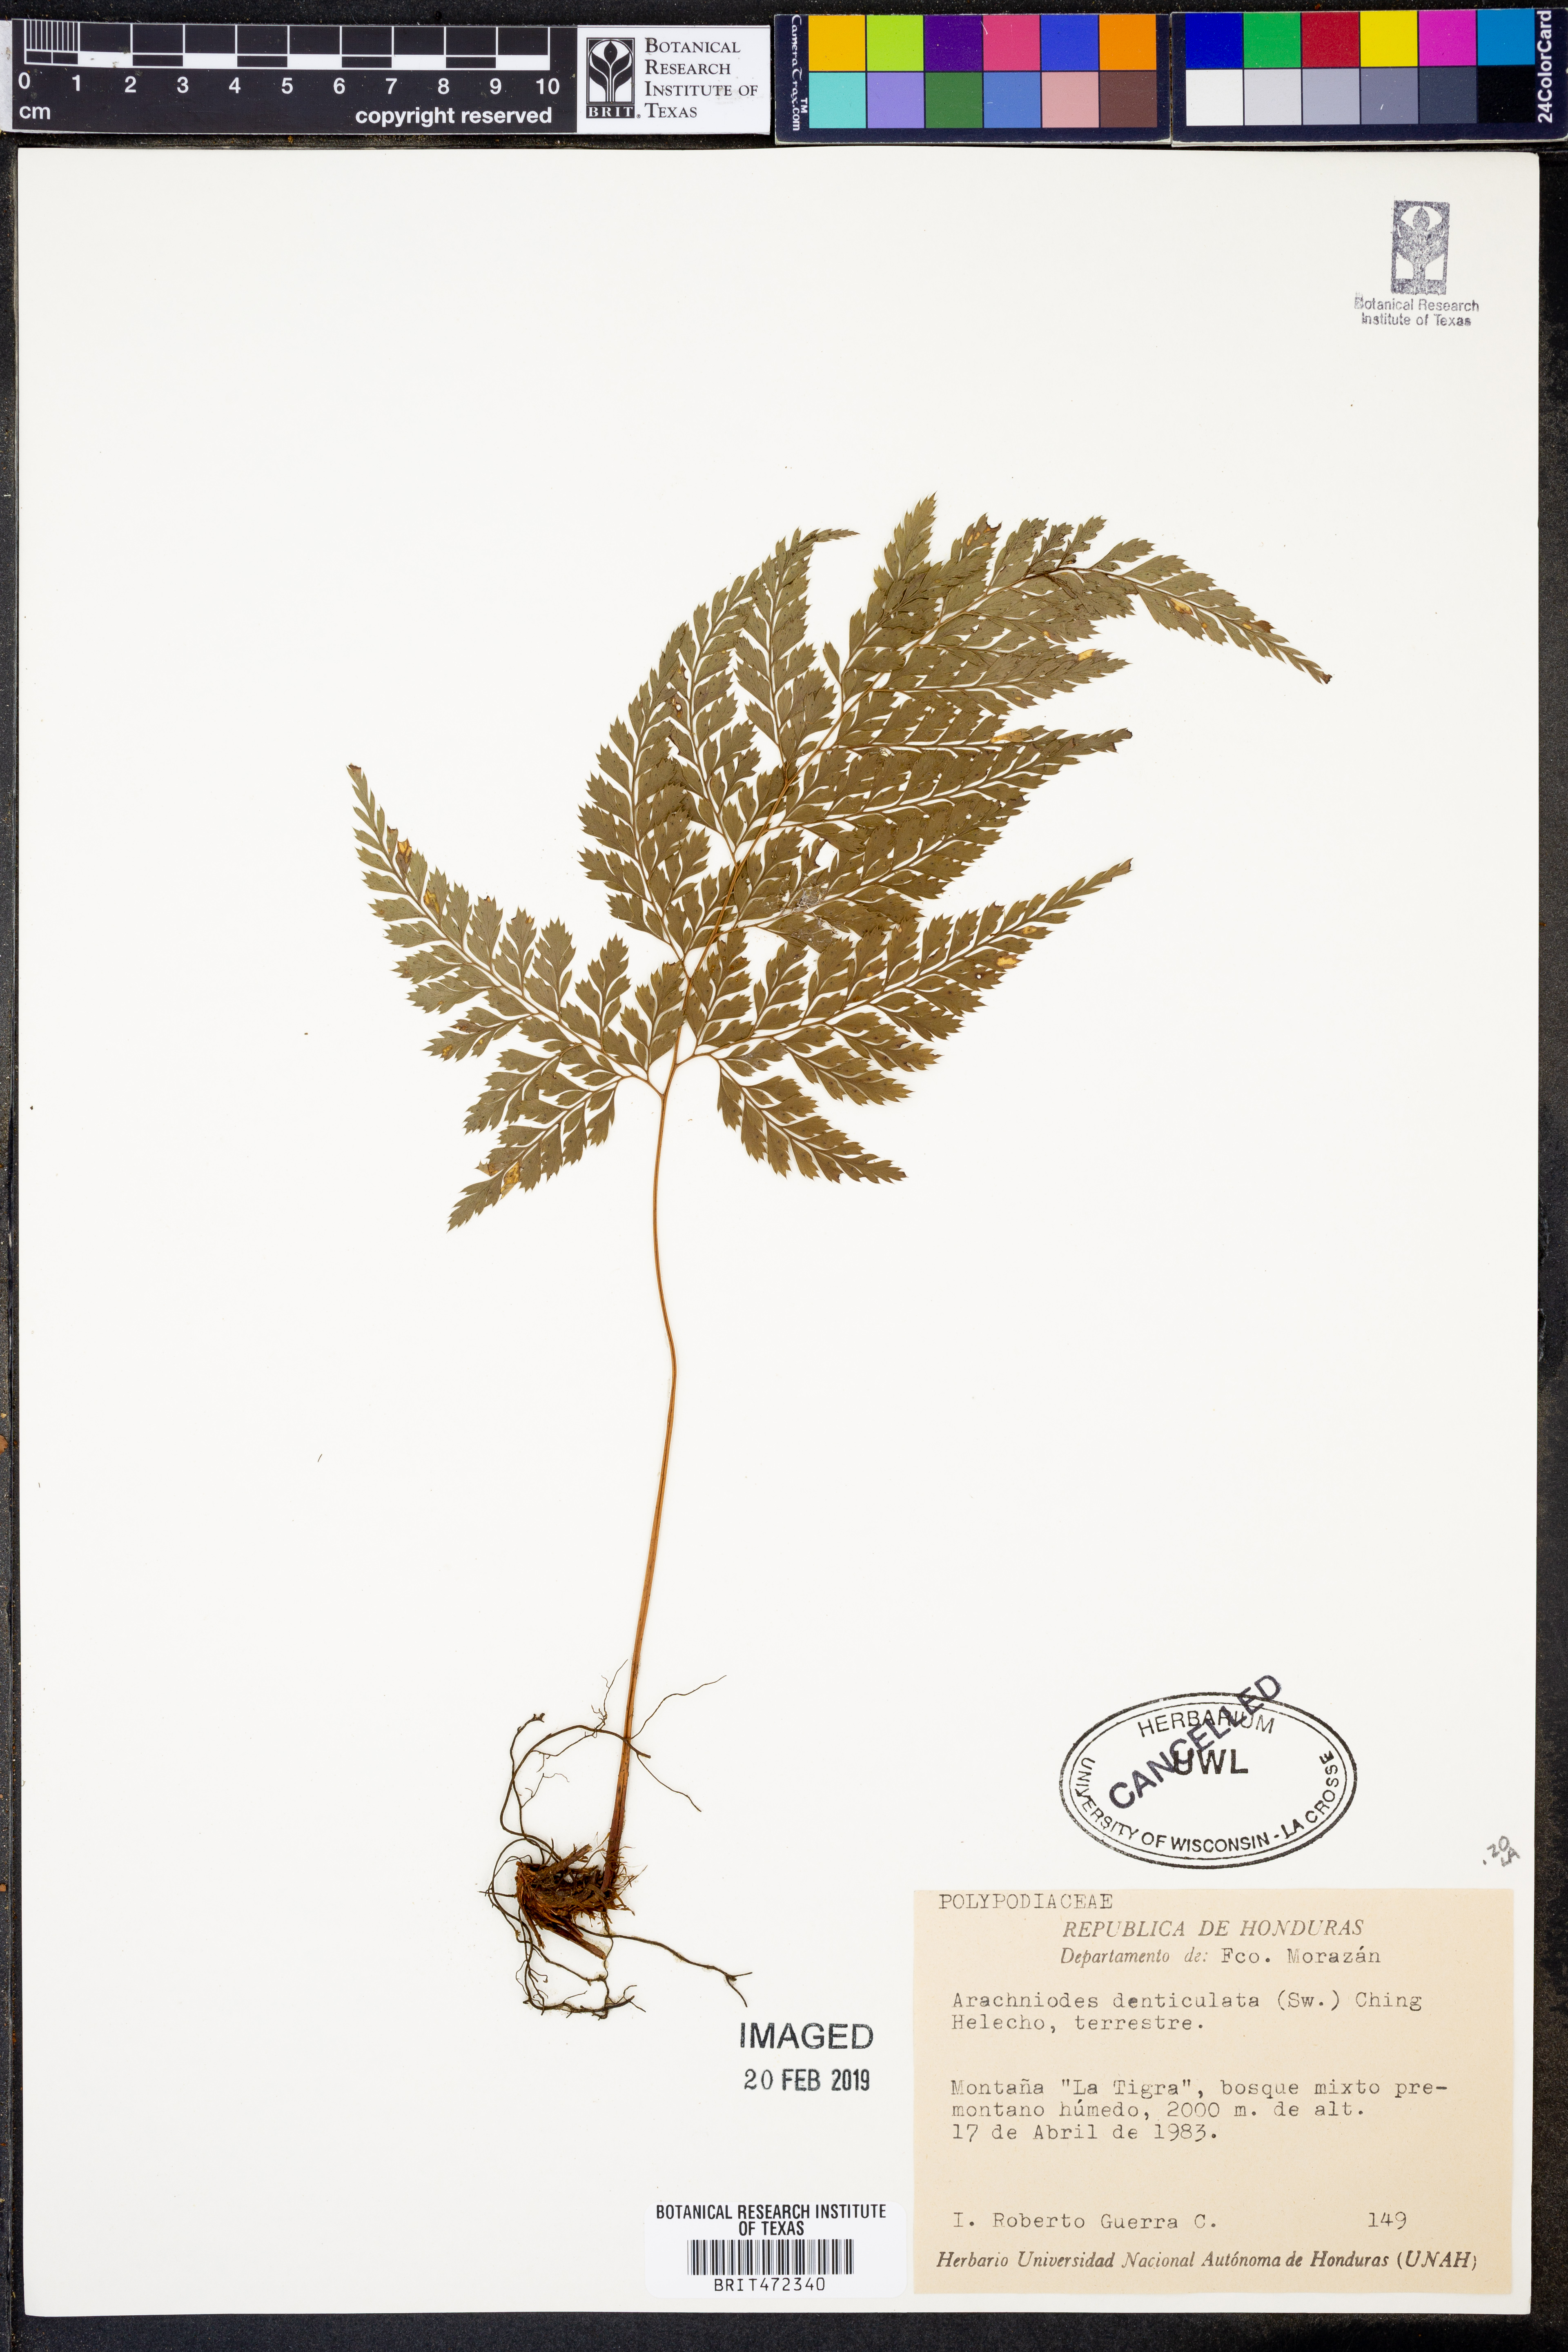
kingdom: Plantae
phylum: Tracheophyta
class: Polypodiopsida
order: Polypodiales
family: Dryopteridaceae
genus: Arachniodes
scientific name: Arachniodes denticulata
